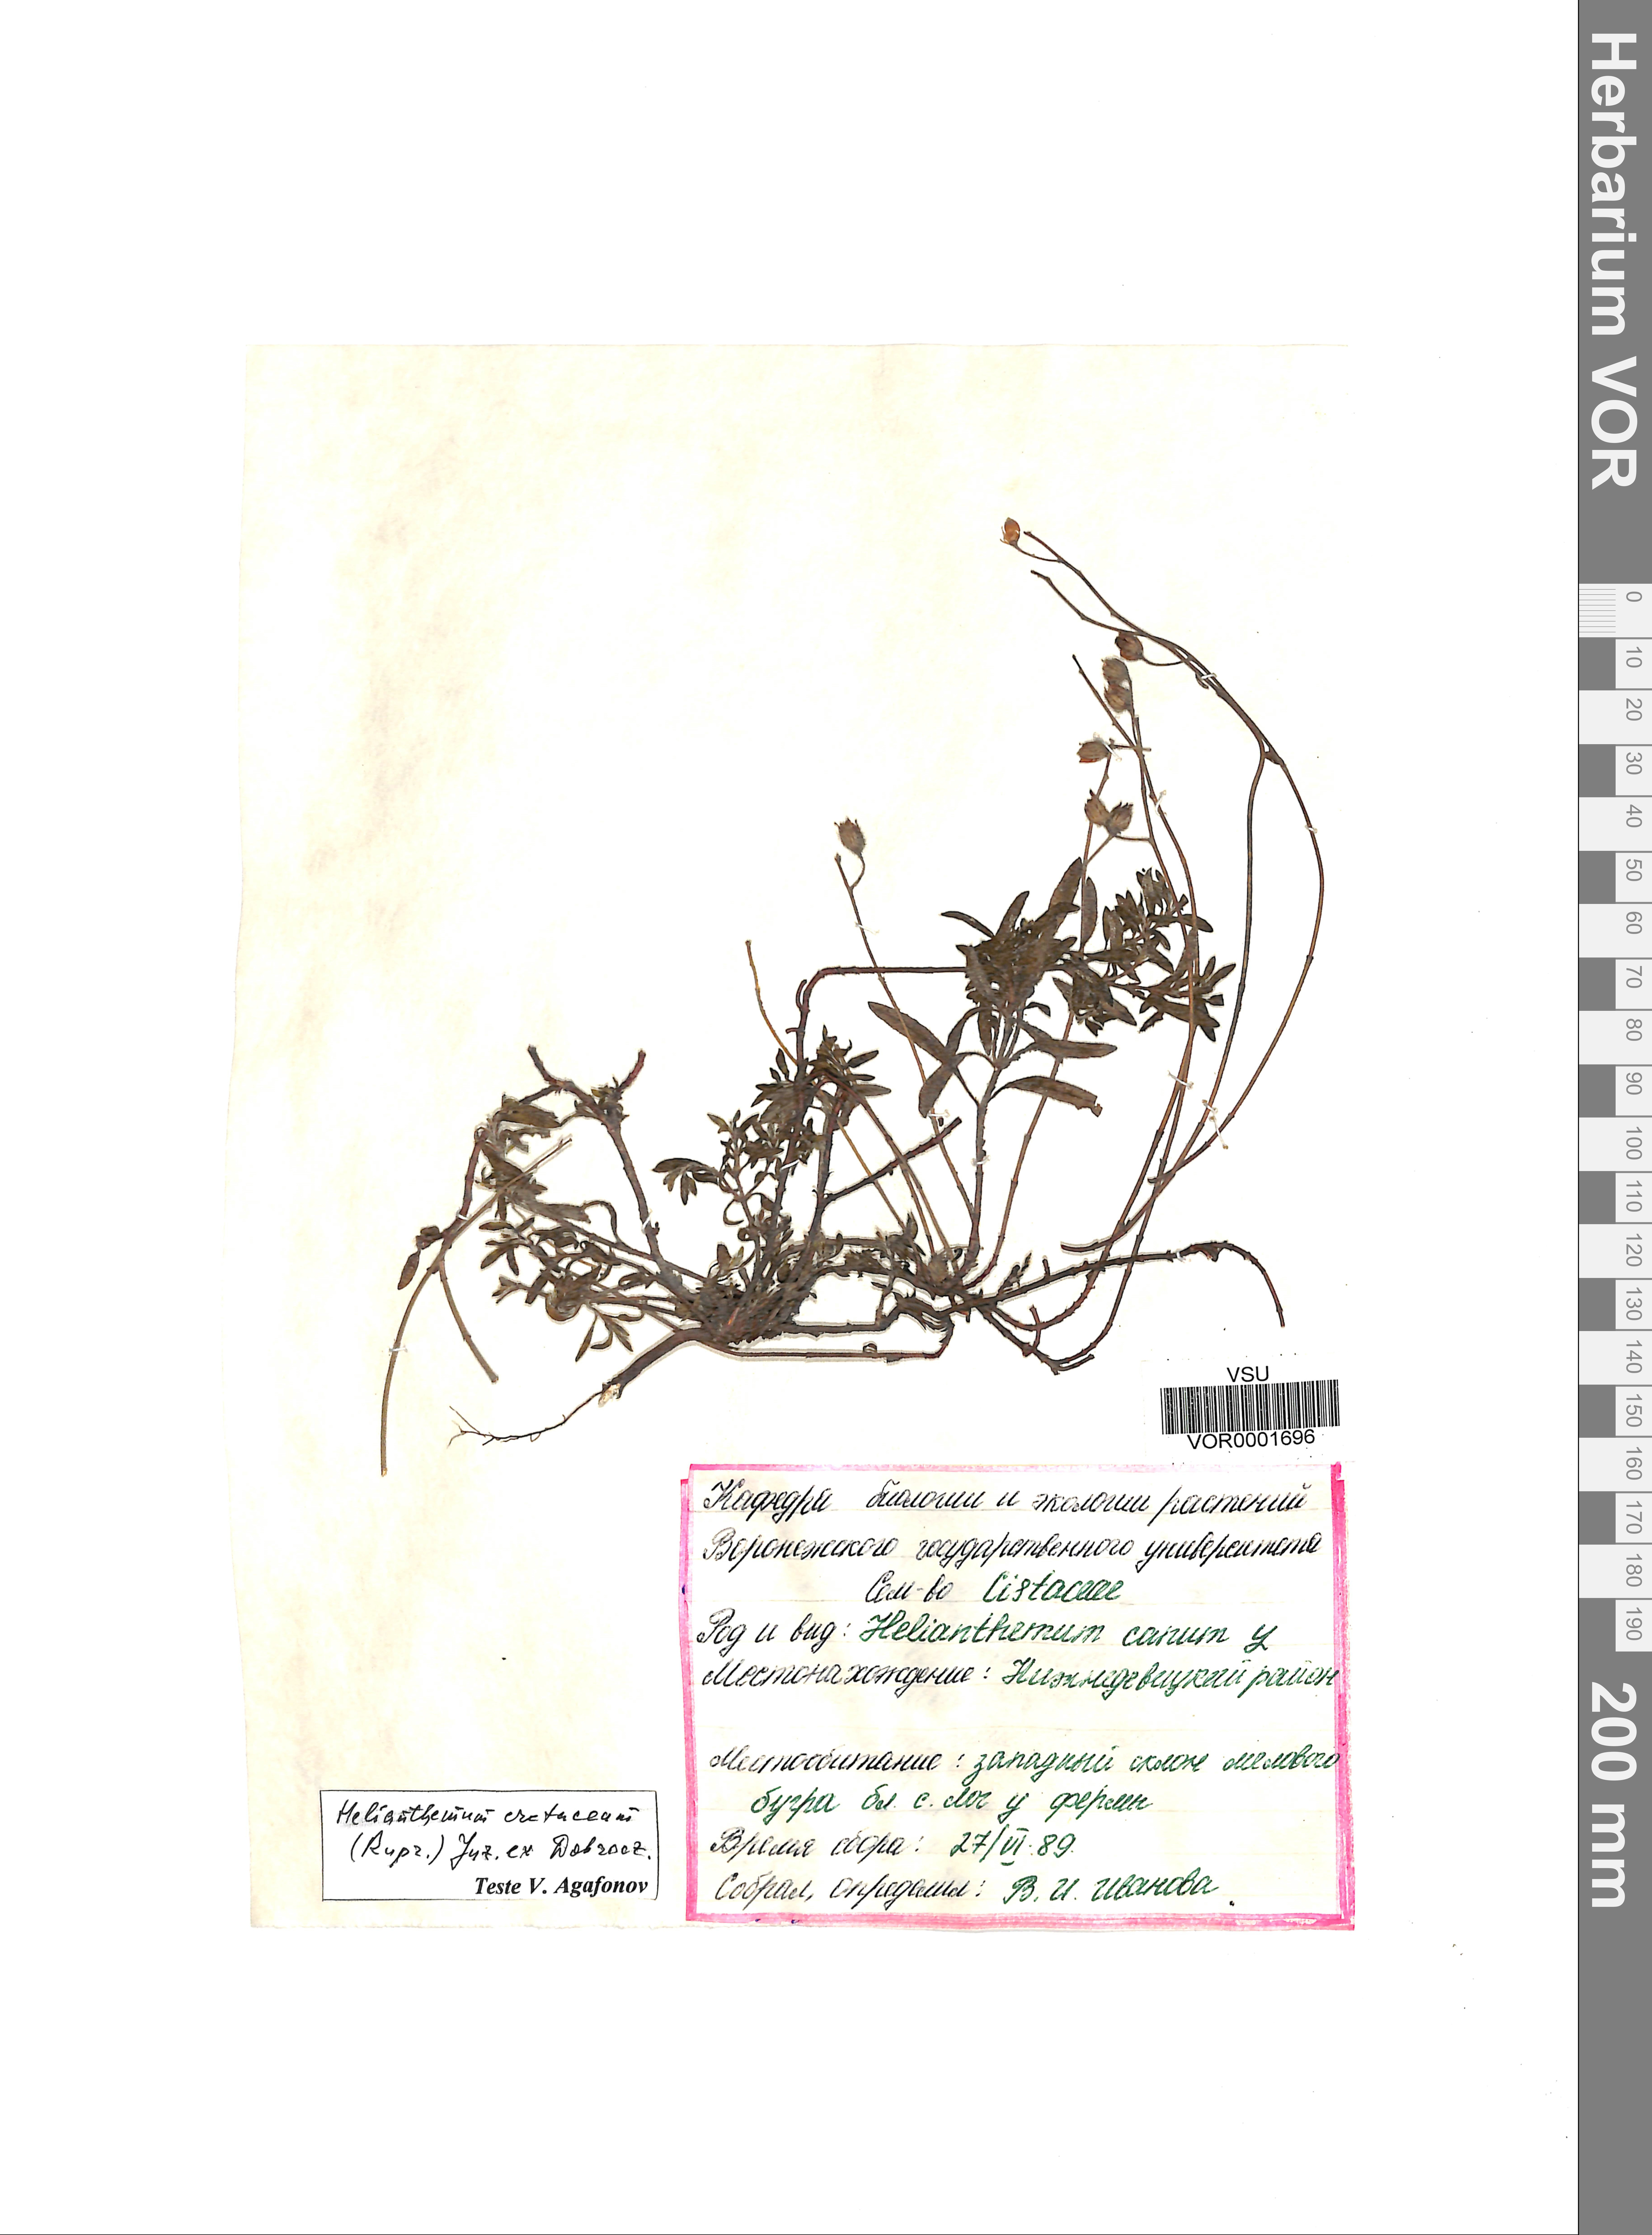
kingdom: Plantae
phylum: Tracheophyta
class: Magnoliopsida
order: Malvales
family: Cistaceae
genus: Helianthemum
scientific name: Helianthemum rupifragum
